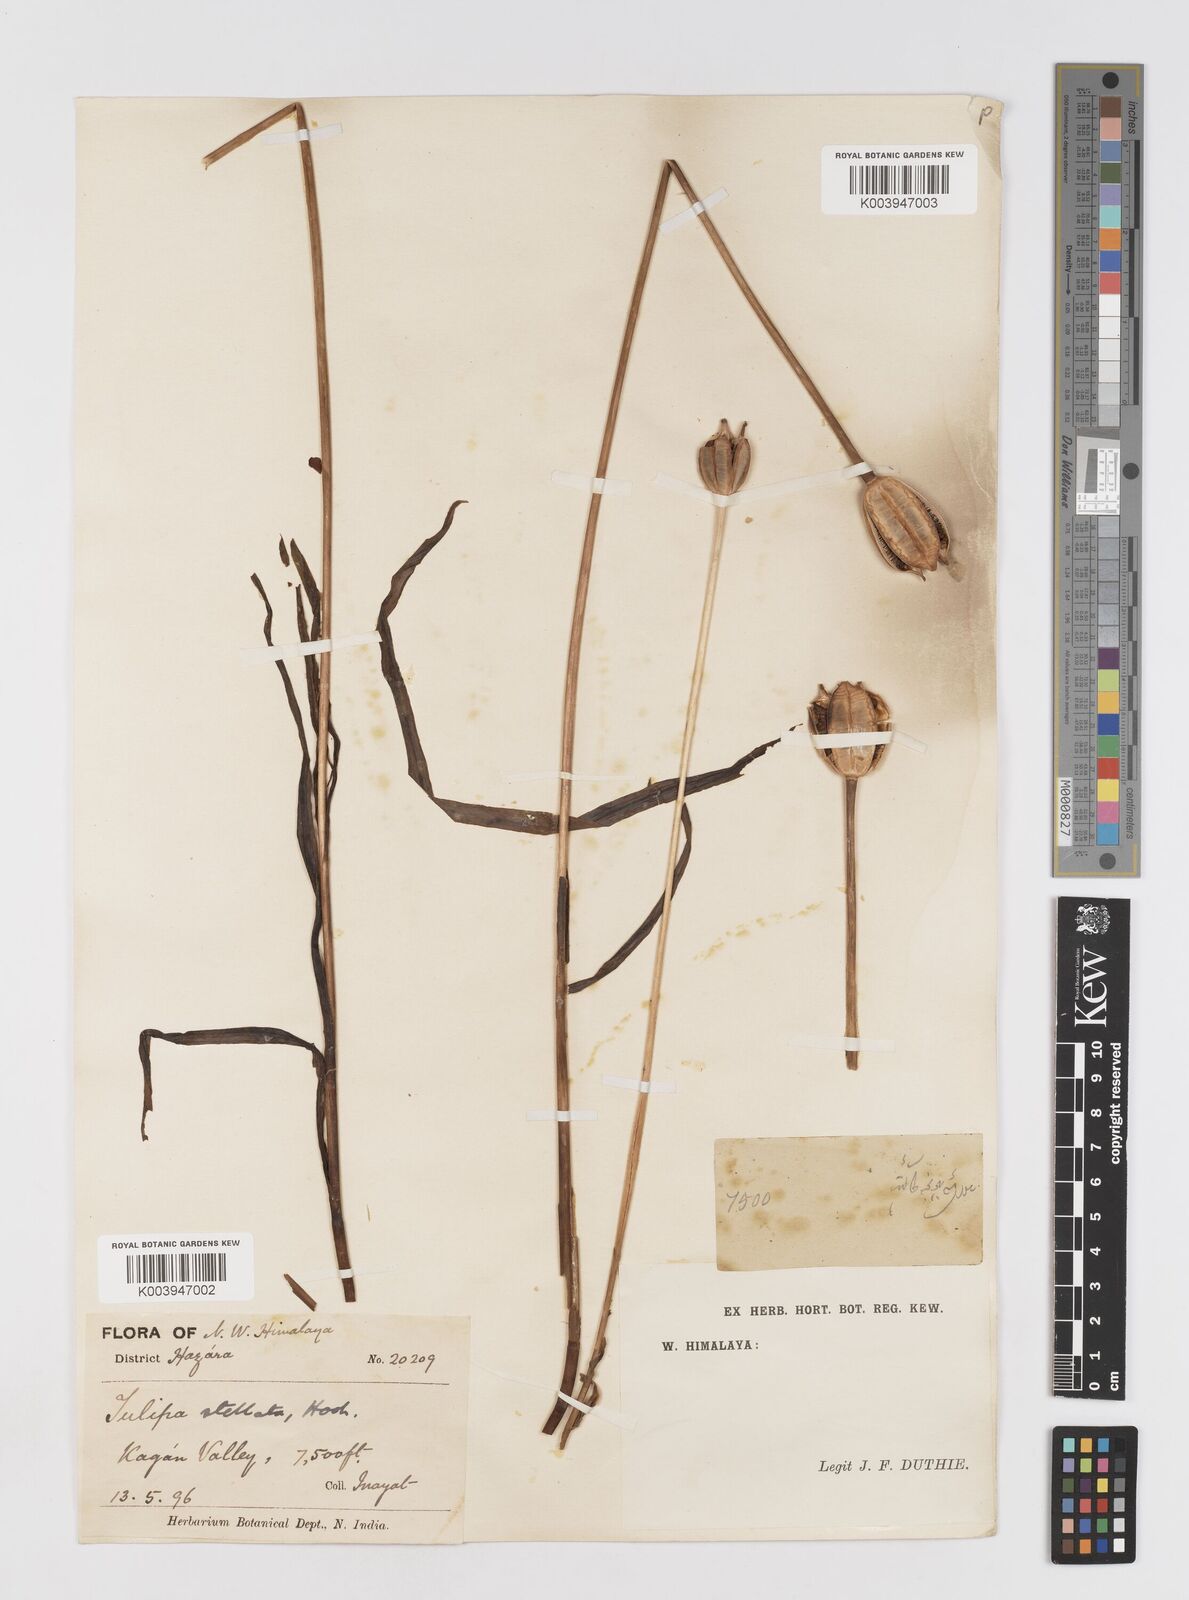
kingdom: Plantae
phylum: Tracheophyta
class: Liliopsida
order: Liliales
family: Liliaceae
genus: Tulipa
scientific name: Tulipa clusiana
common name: Lady tulip
